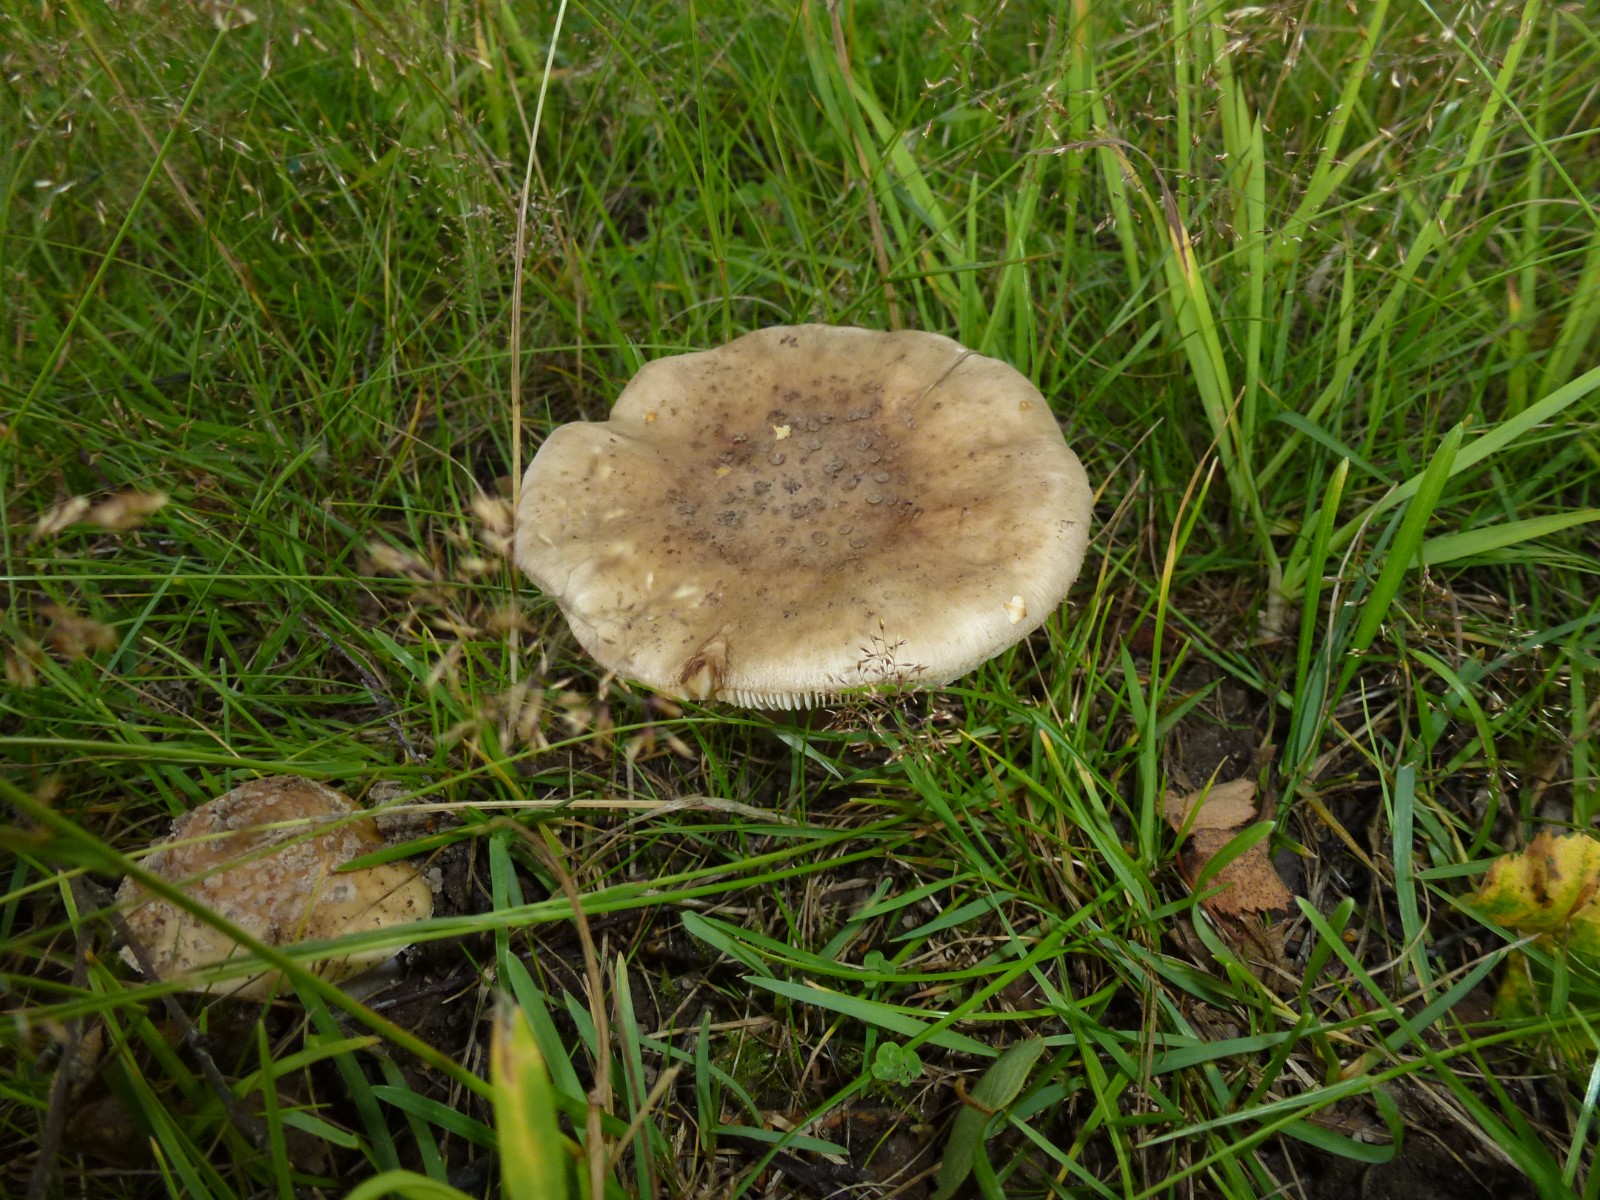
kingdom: Fungi
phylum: Basidiomycota
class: Agaricomycetes
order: Agaricales
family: Amanitaceae
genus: Amanita
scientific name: Amanita
